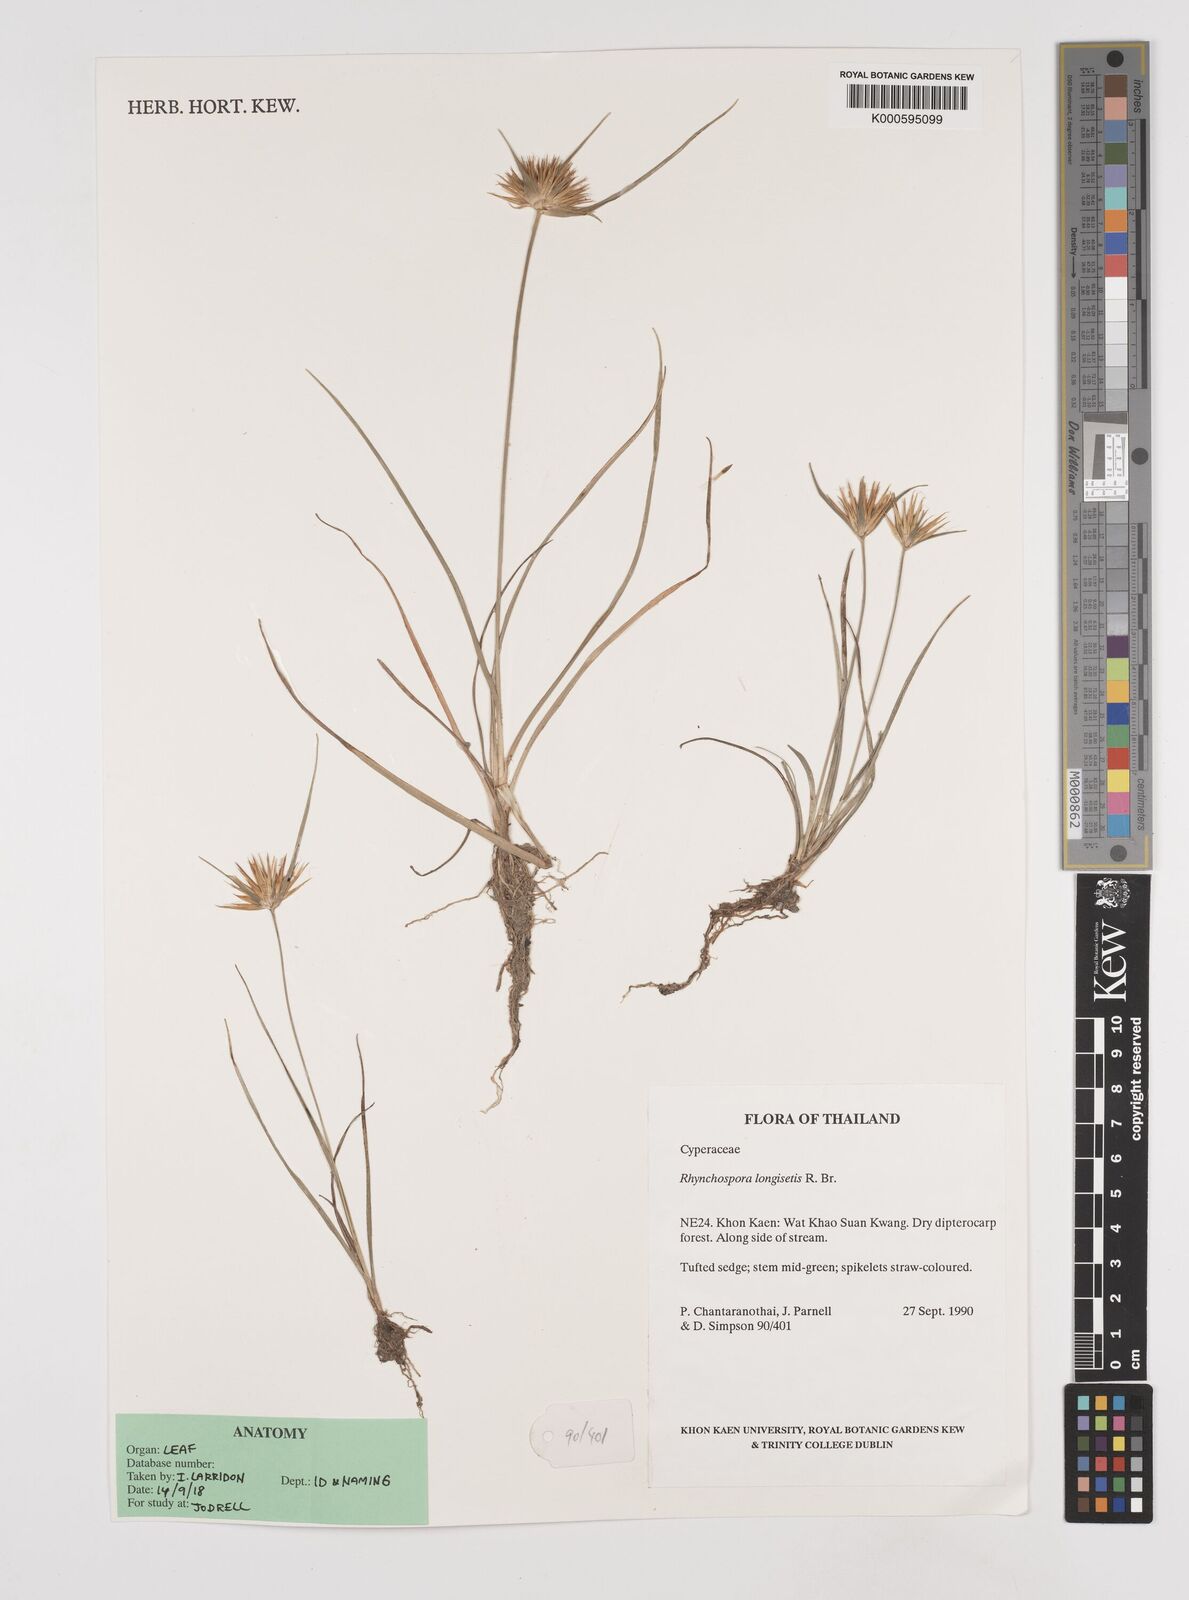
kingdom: Plantae
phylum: Tracheophyta
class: Liliopsida
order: Poales
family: Cyperaceae
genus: Rhynchospora
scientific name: Rhynchospora longisetis
